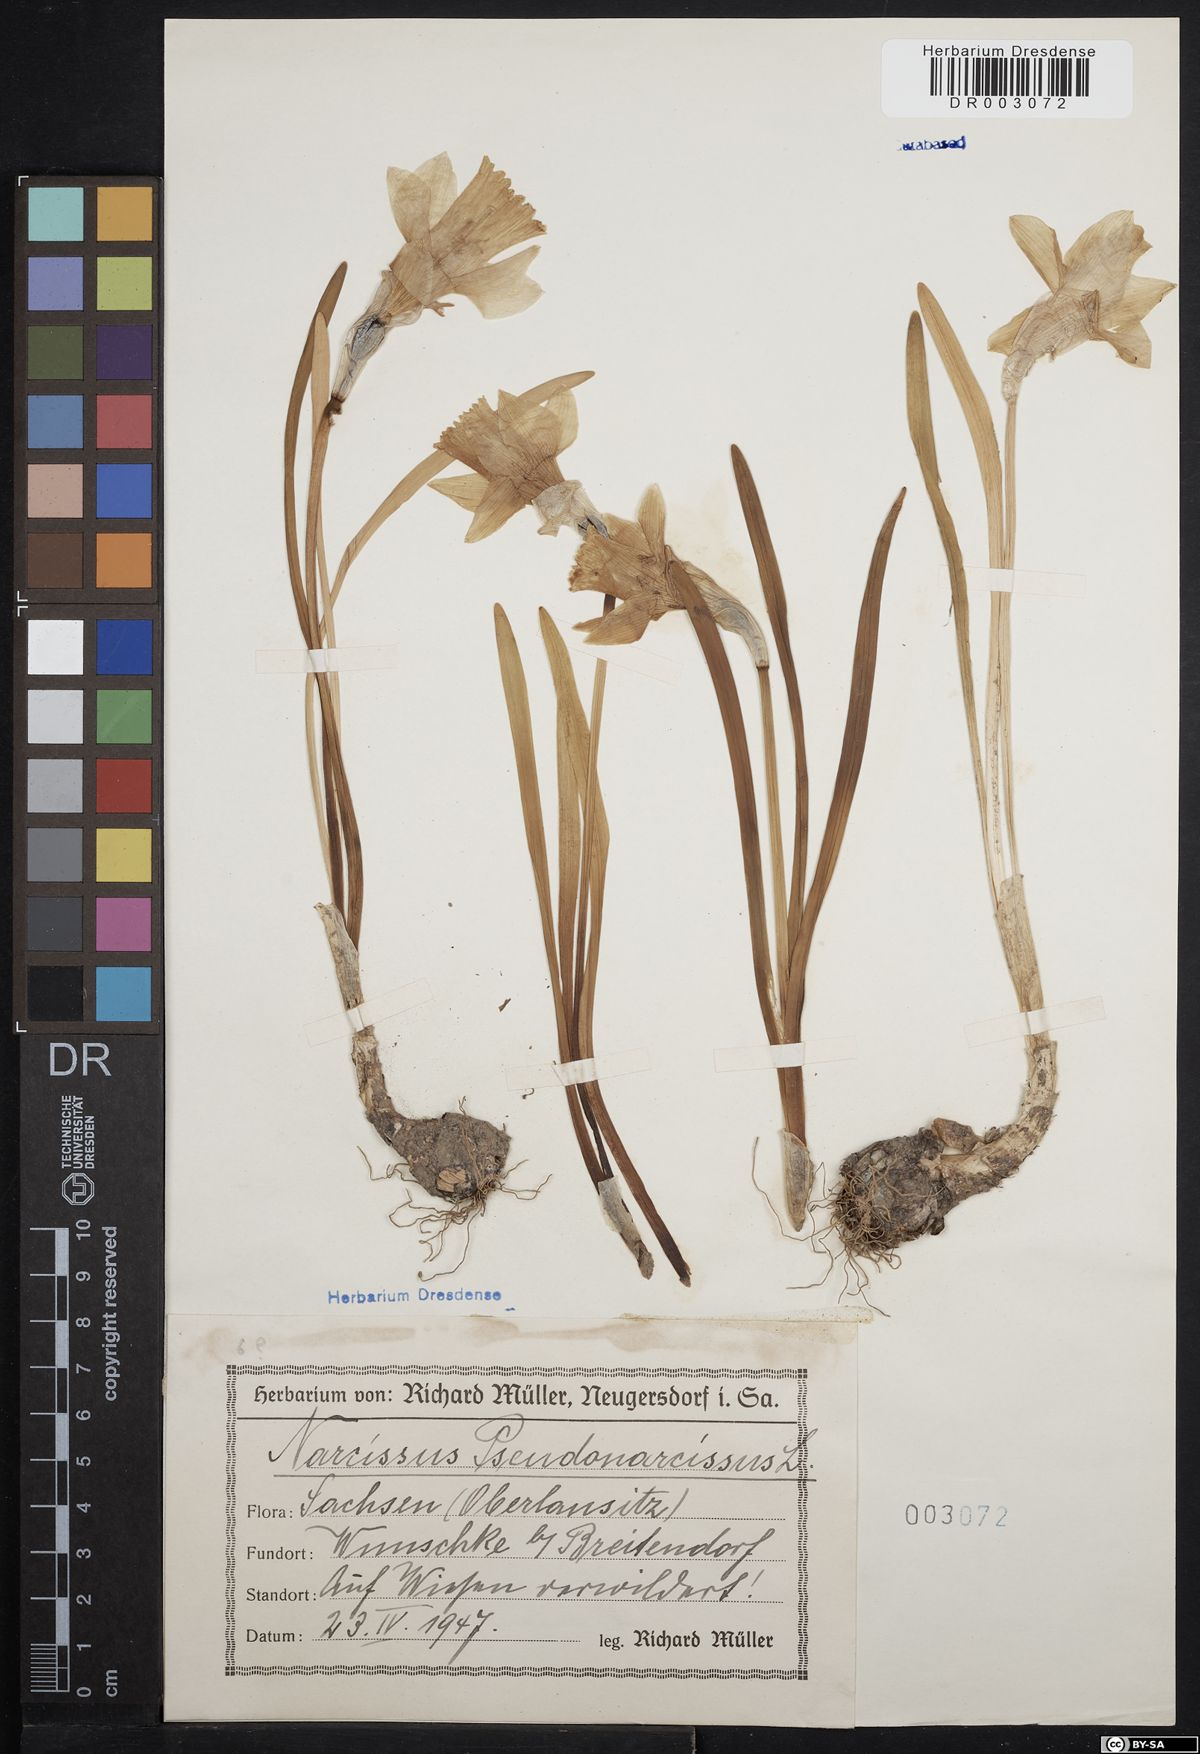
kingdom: Plantae
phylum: Tracheophyta
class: Liliopsida
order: Asparagales
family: Amaryllidaceae
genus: Narcissus
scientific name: Narcissus pseudonarcissus
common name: Daffodil
